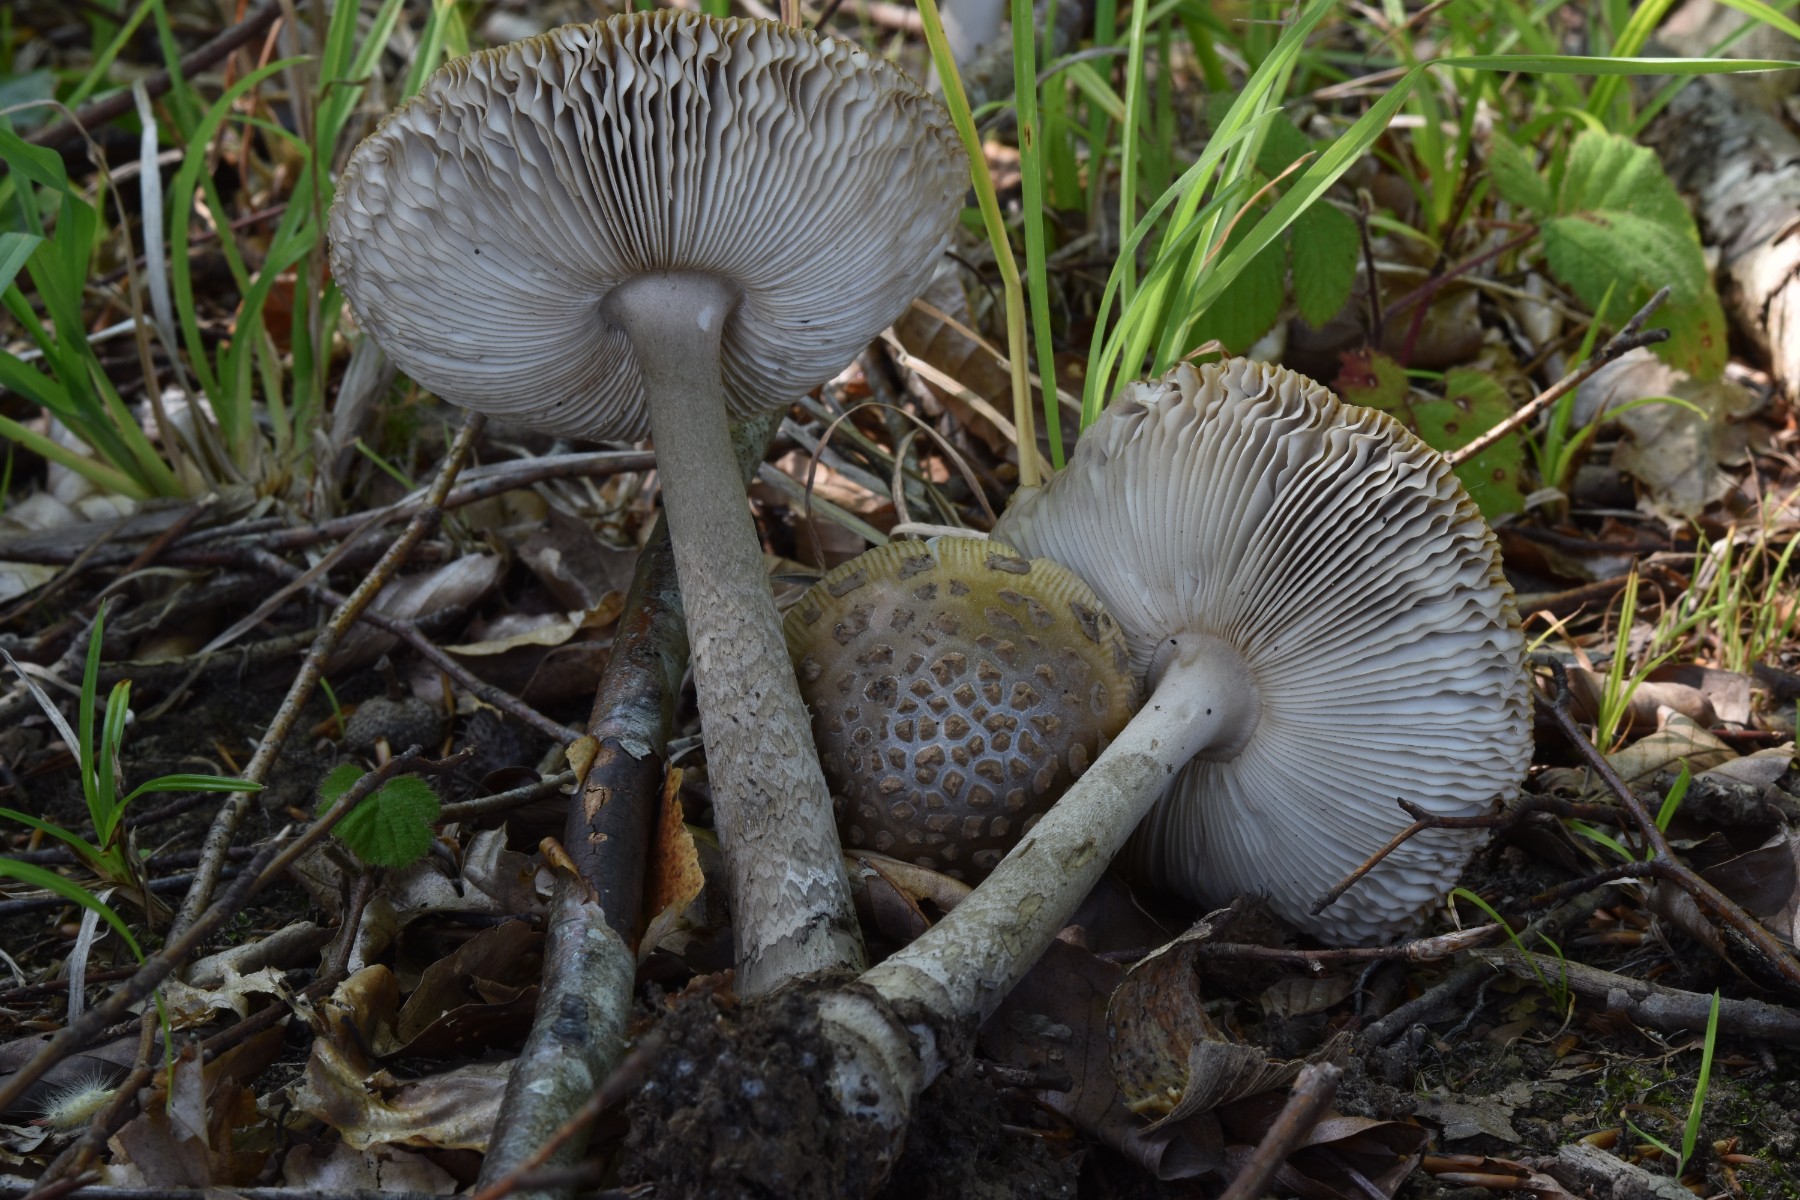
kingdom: Fungi
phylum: Basidiomycota
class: Agaricomycetes
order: Agaricales
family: Amanitaceae
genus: Amanita
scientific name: Amanita ceciliae
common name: stor kam-fluesvamp
